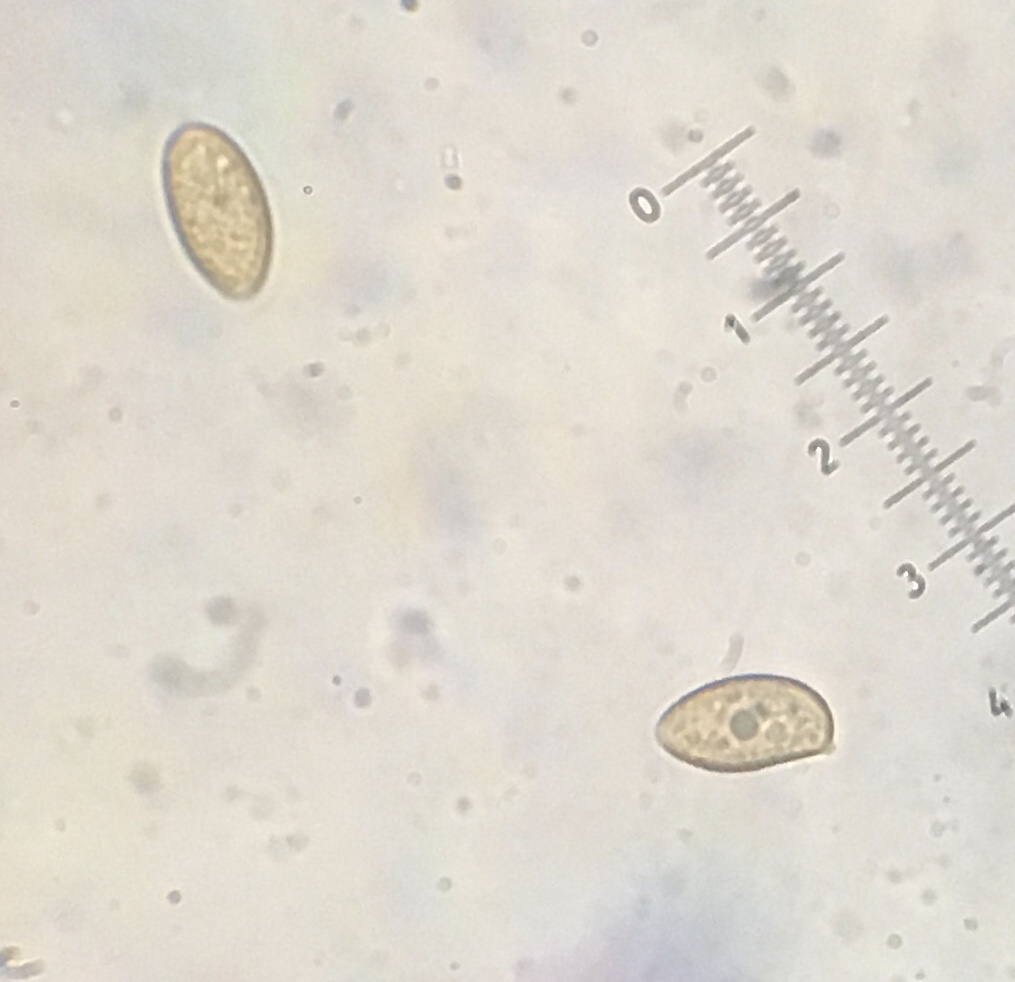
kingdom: Fungi
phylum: Basidiomycota
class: Agaricomycetes
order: Agaricales
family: Hymenogastraceae
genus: Galerina
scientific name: Galerina subclavata
